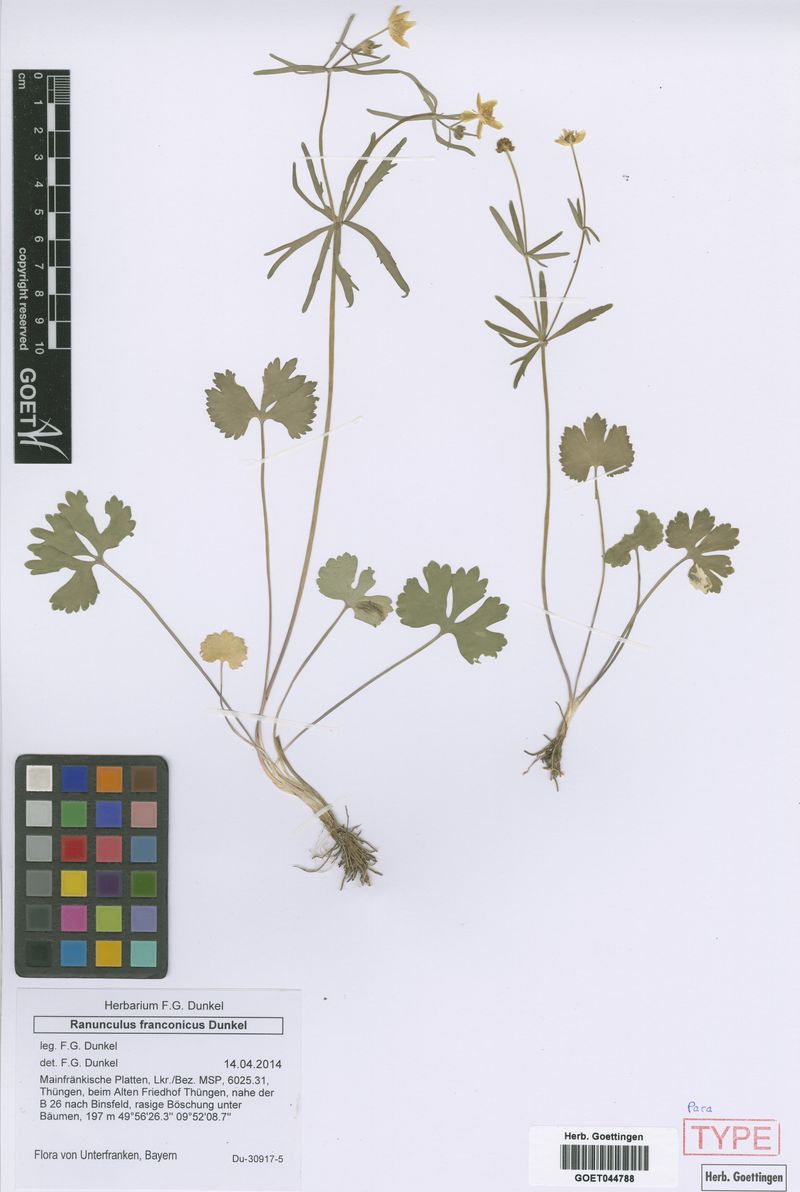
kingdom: Plantae
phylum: Tracheophyta
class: Magnoliopsida
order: Ranunculales
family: Ranunculaceae
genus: Ranunculus
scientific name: Ranunculus franconicus
